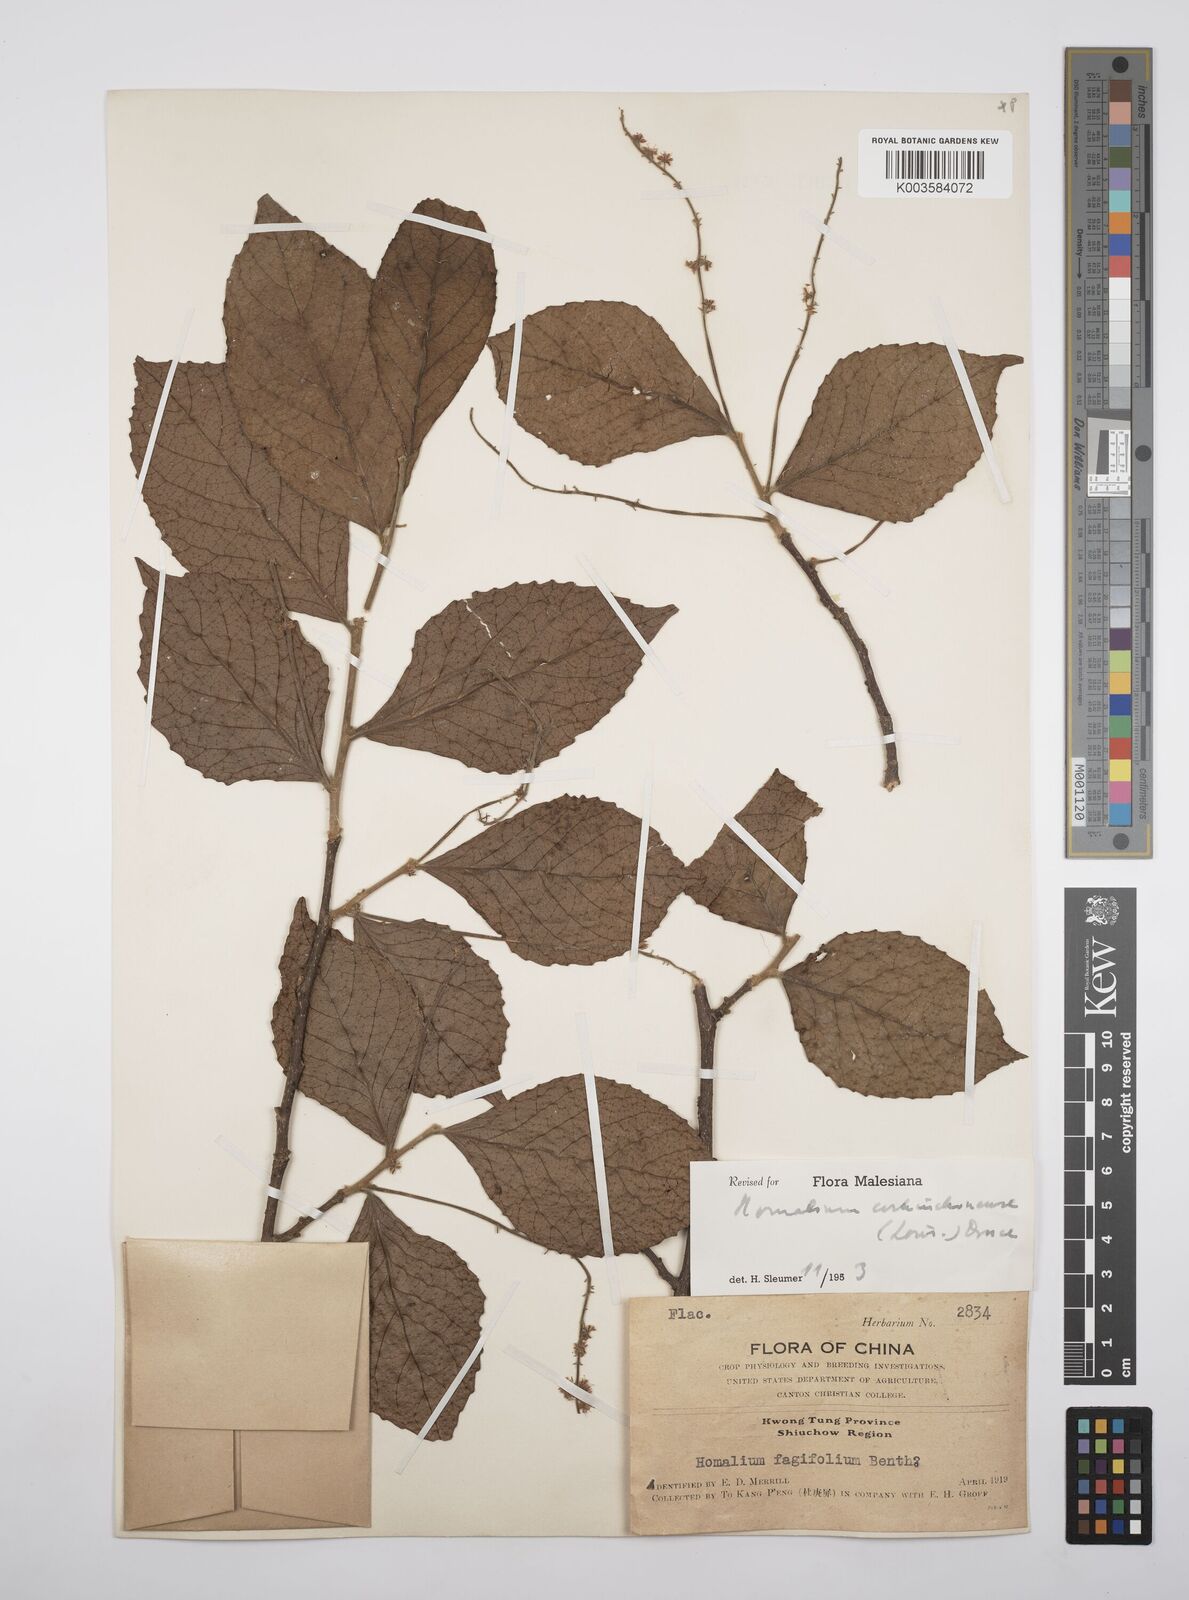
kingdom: Plantae
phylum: Tracheophyta
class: Magnoliopsida
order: Malpighiales
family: Salicaceae
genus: Homalium
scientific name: Homalium cochinchinensis
